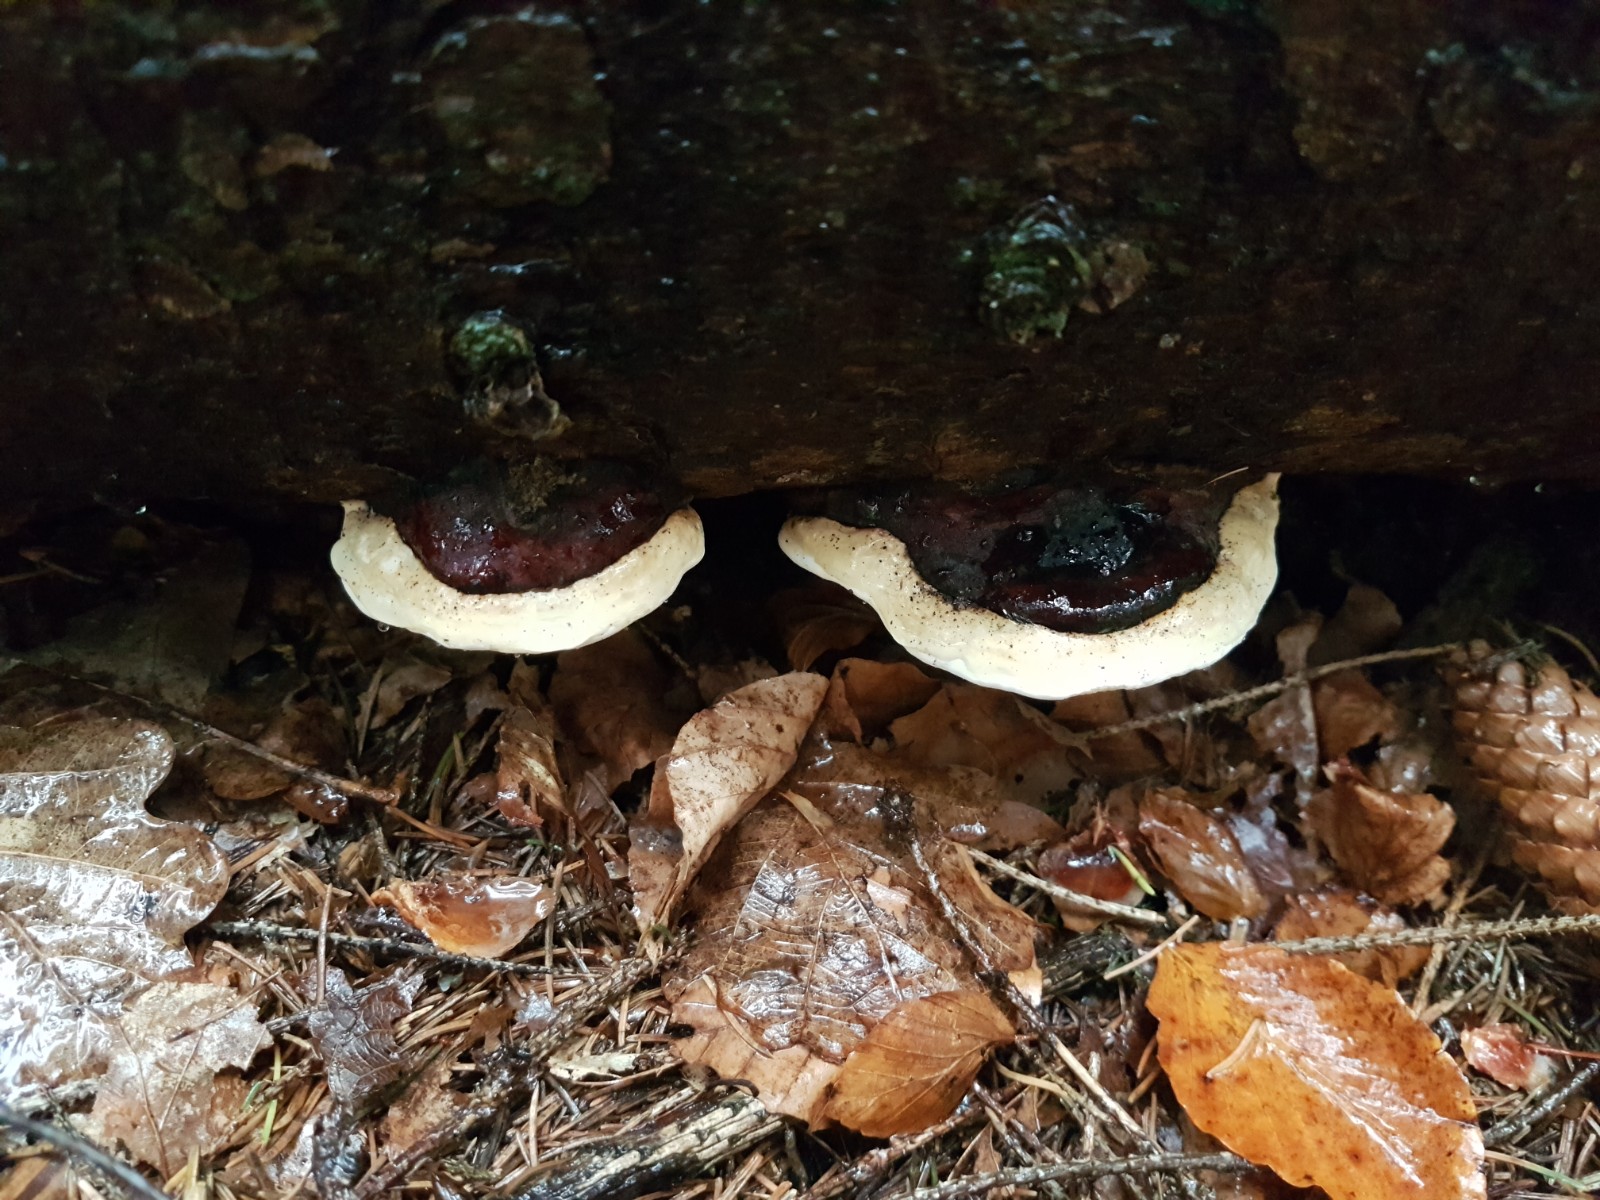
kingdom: Fungi
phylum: Basidiomycota
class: Agaricomycetes
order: Polyporales
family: Fomitopsidaceae
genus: Fomitopsis
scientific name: Fomitopsis pinicola
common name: randbæltet hovporesvamp
